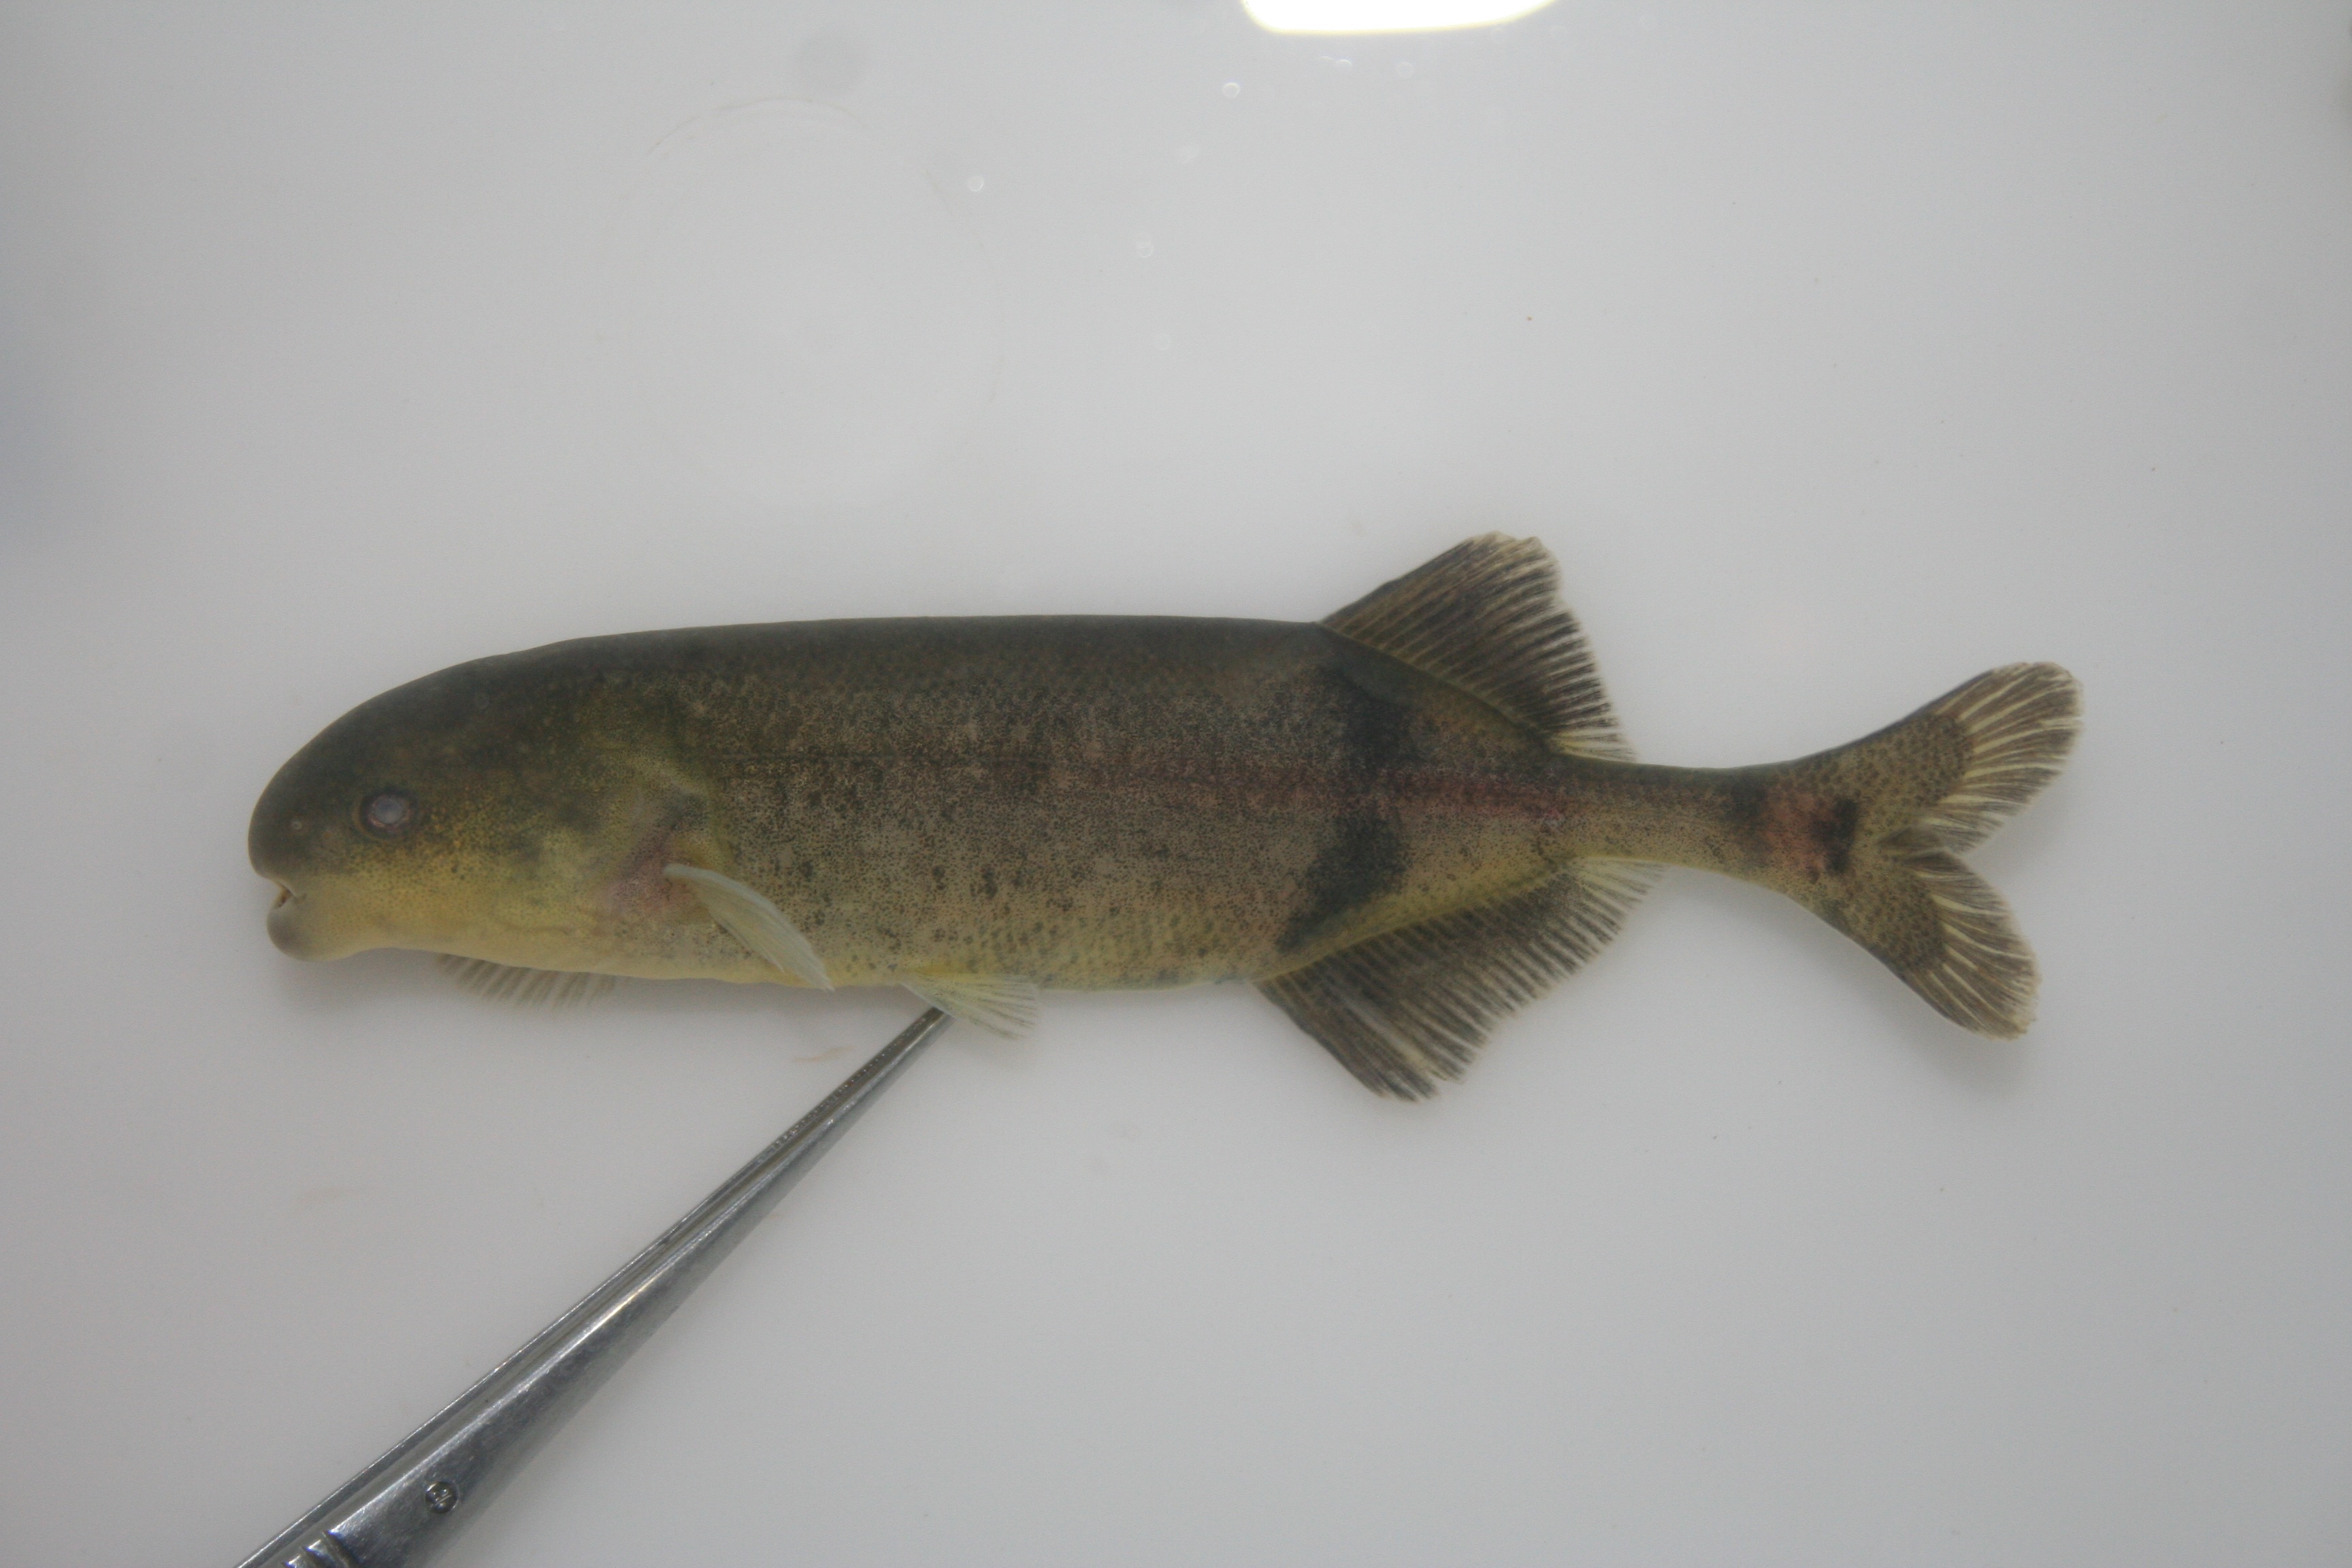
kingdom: Animalia
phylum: Chordata
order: Osteoglossiformes
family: Mormyridae
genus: Hippopotamyrus
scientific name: Hippopotamyrus
